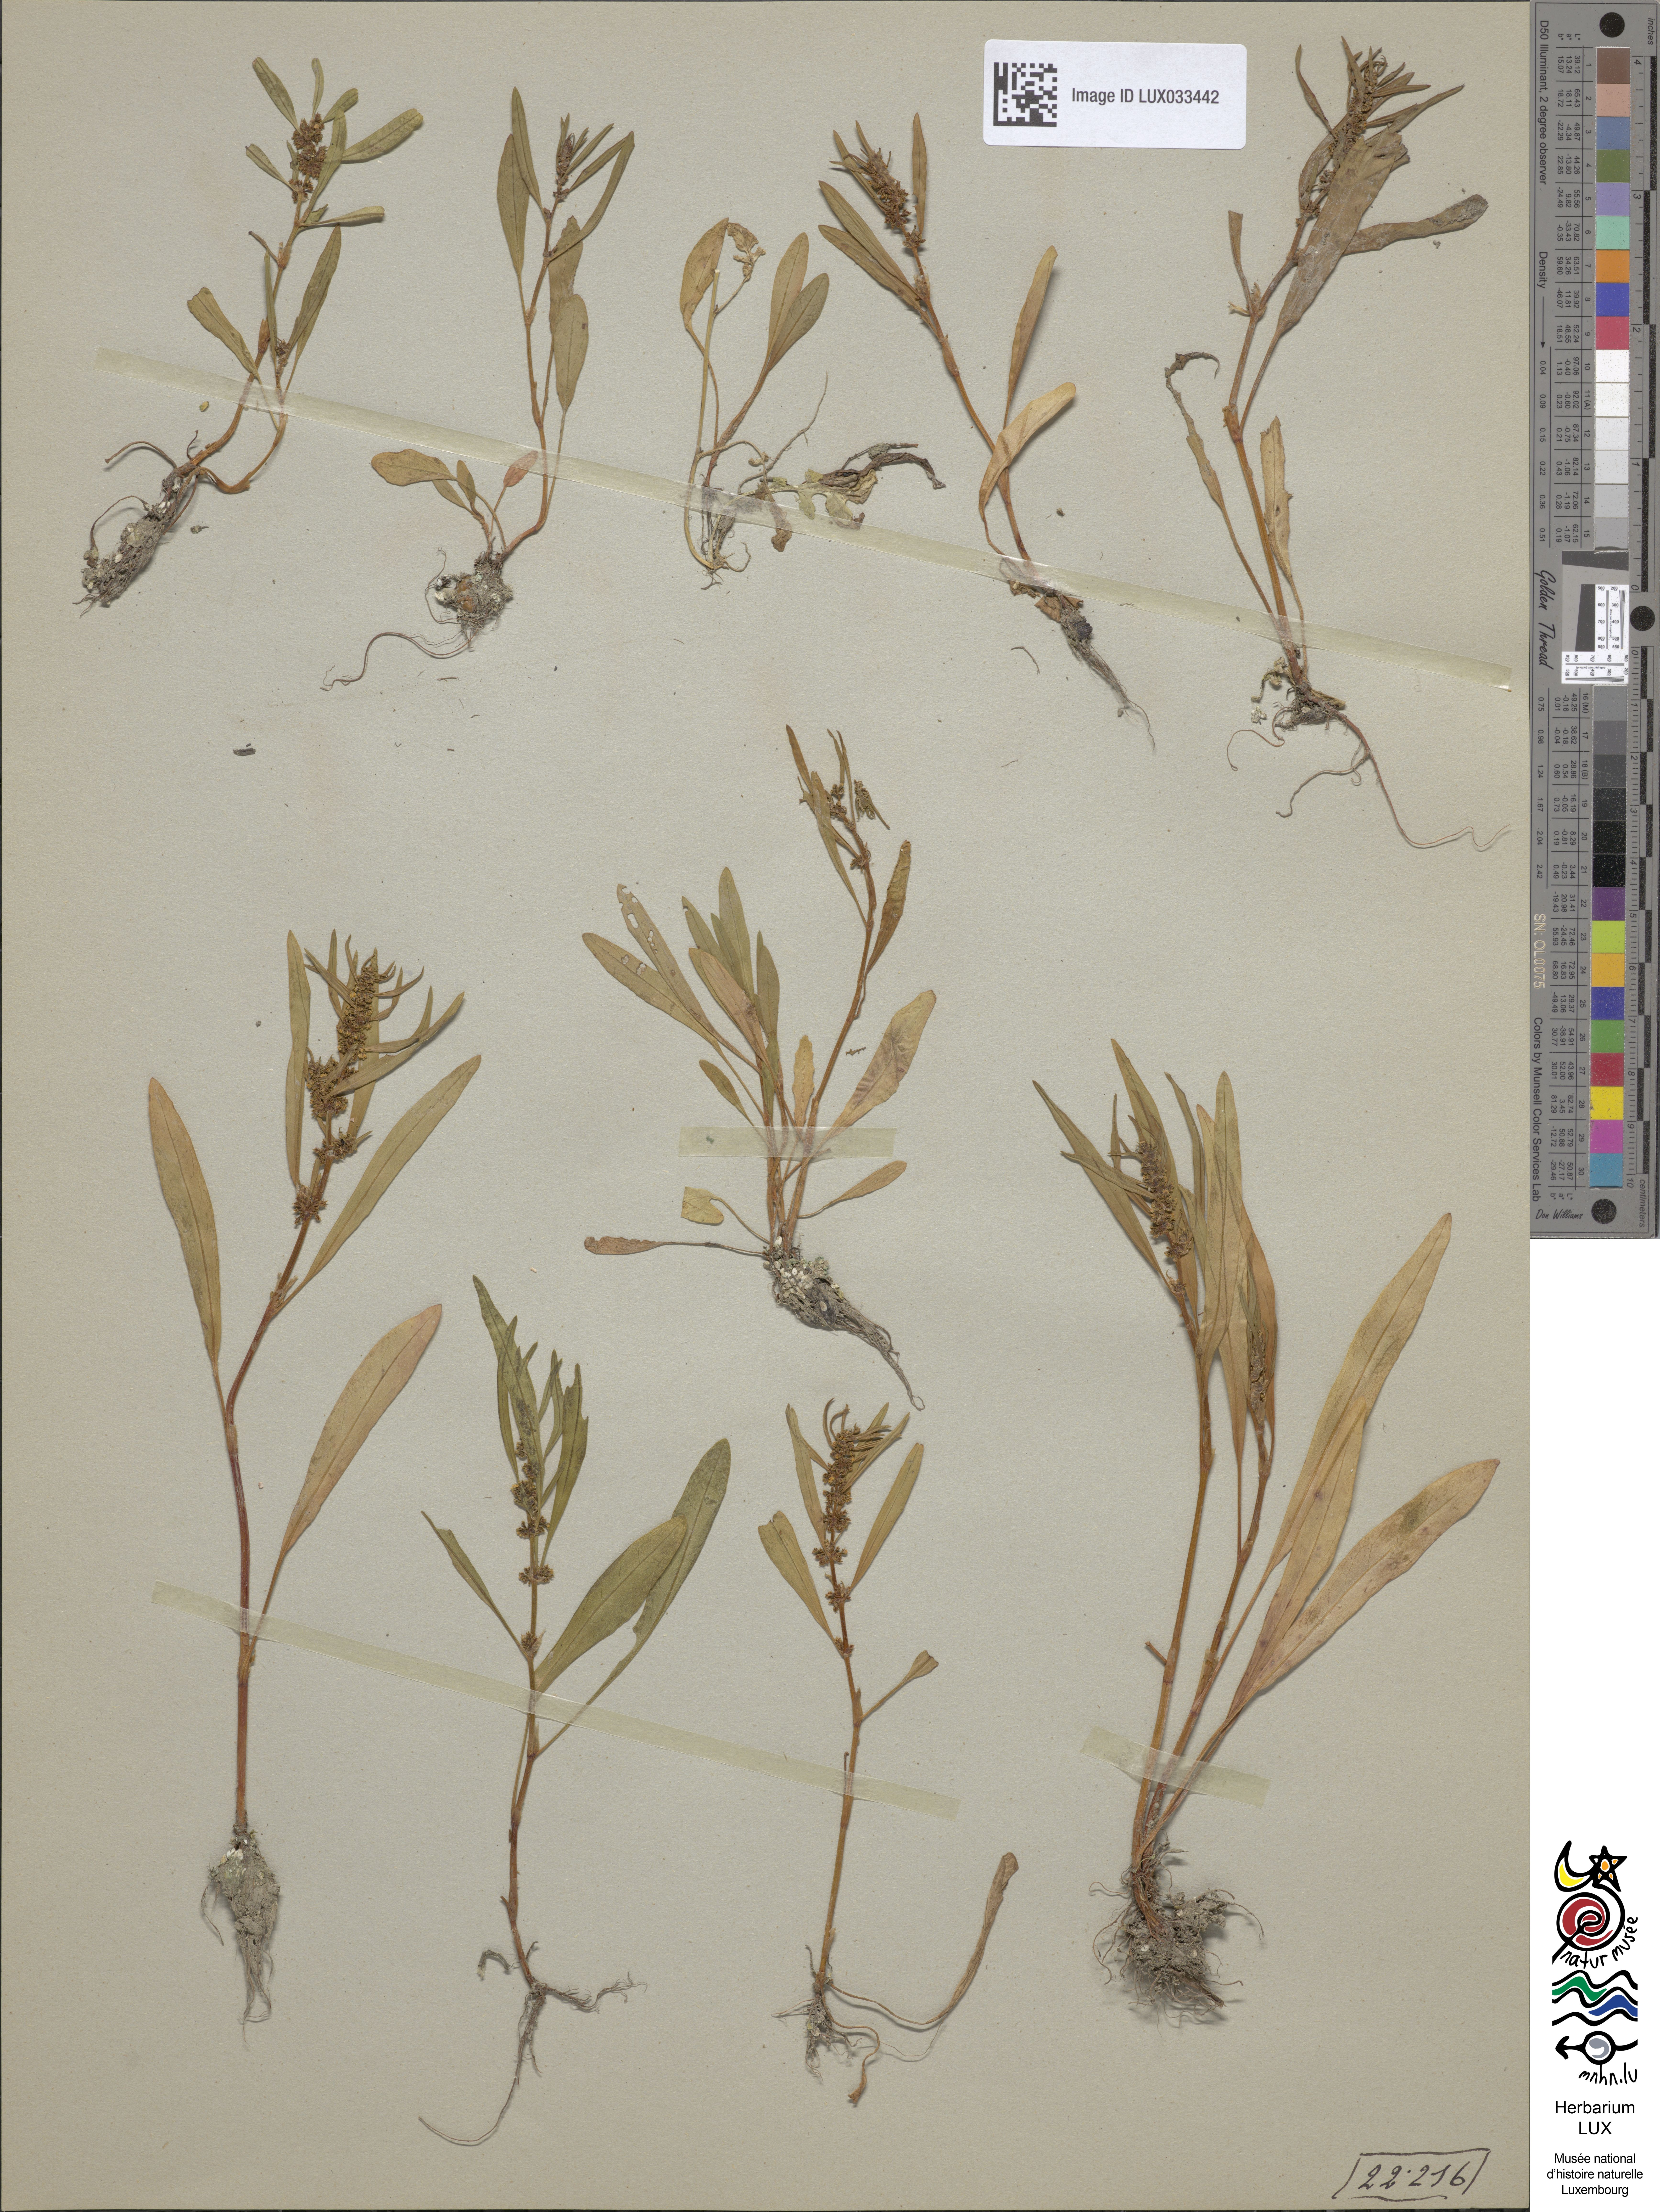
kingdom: Plantae
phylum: Tracheophyta
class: Magnoliopsida
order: Caryophyllales
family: Polygonaceae
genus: Rumex
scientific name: Rumex maritimus
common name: Golden dock
